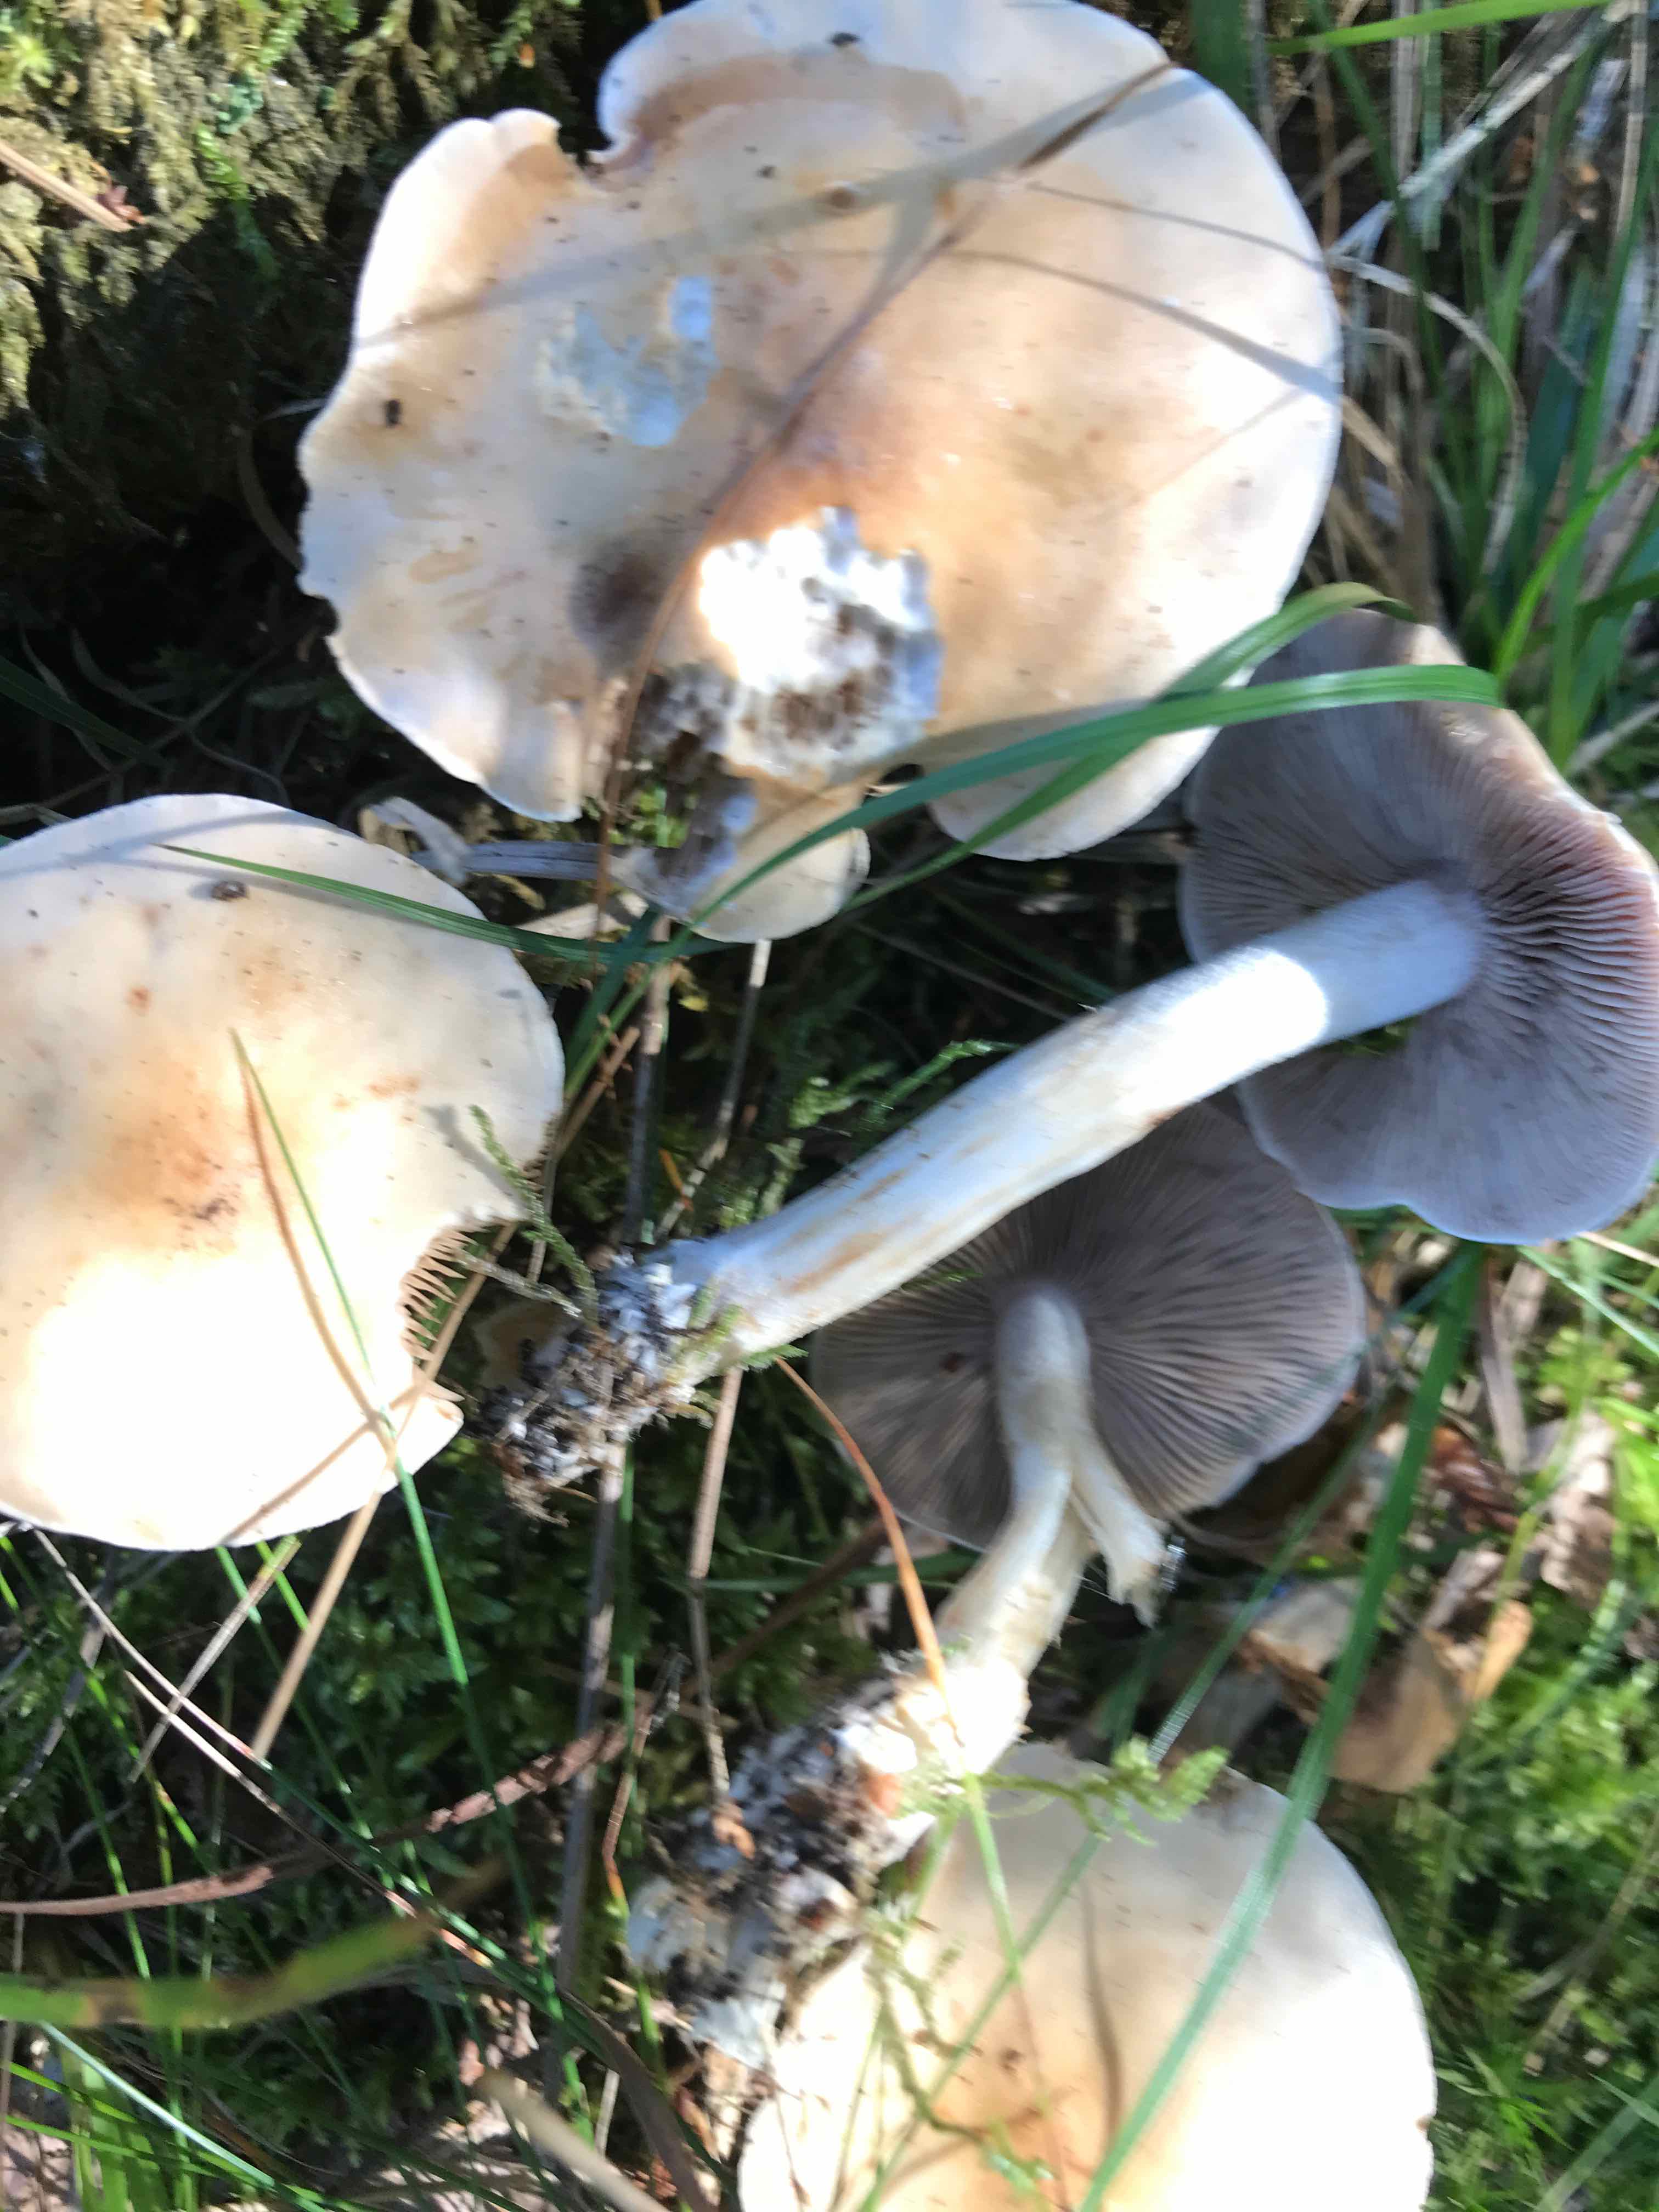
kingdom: Fungi
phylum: Basidiomycota
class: Agaricomycetes
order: Agaricales
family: Hymenogastraceae
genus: Hebeloma
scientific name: Hebeloma
